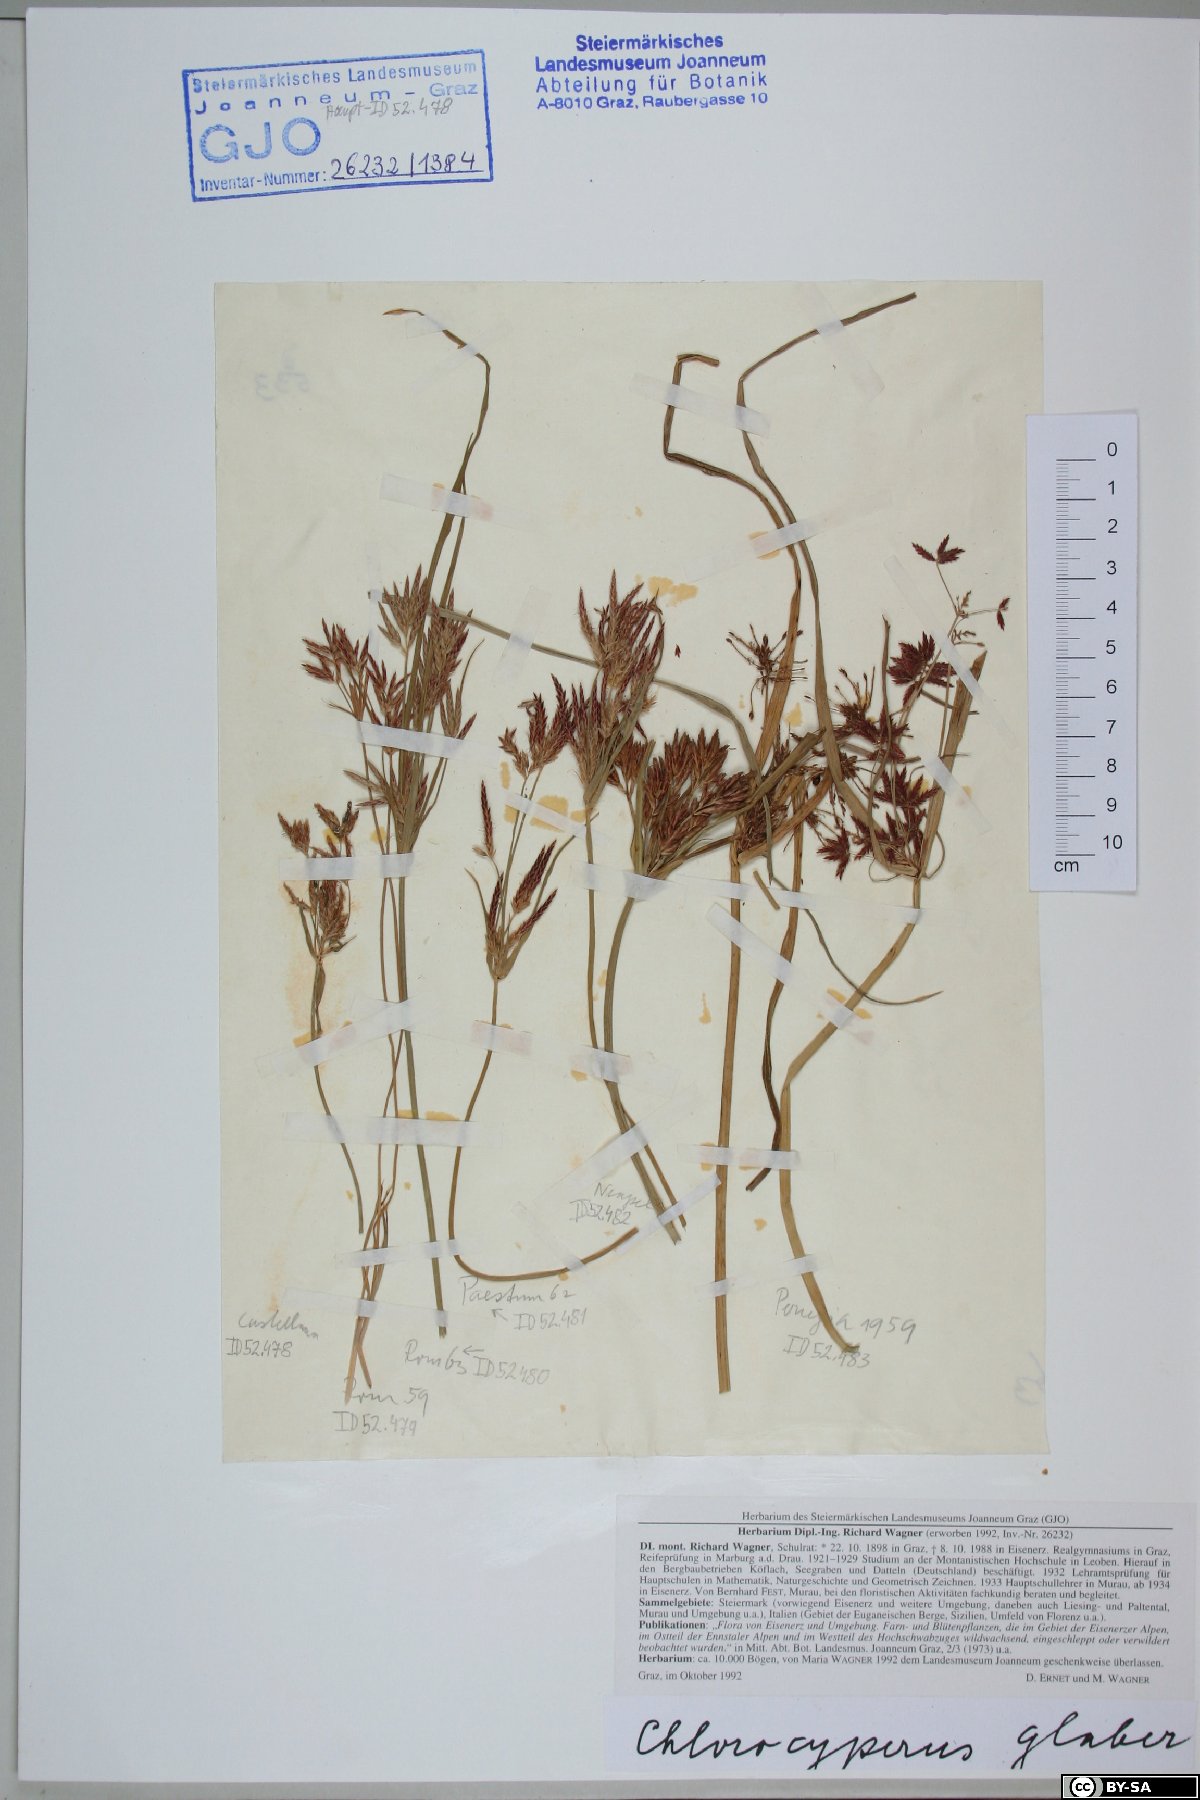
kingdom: Plantae
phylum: Tracheophyta
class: Liliopsida
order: Poales
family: Cyperaceae
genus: Cyperus
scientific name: Cyperus glaber
